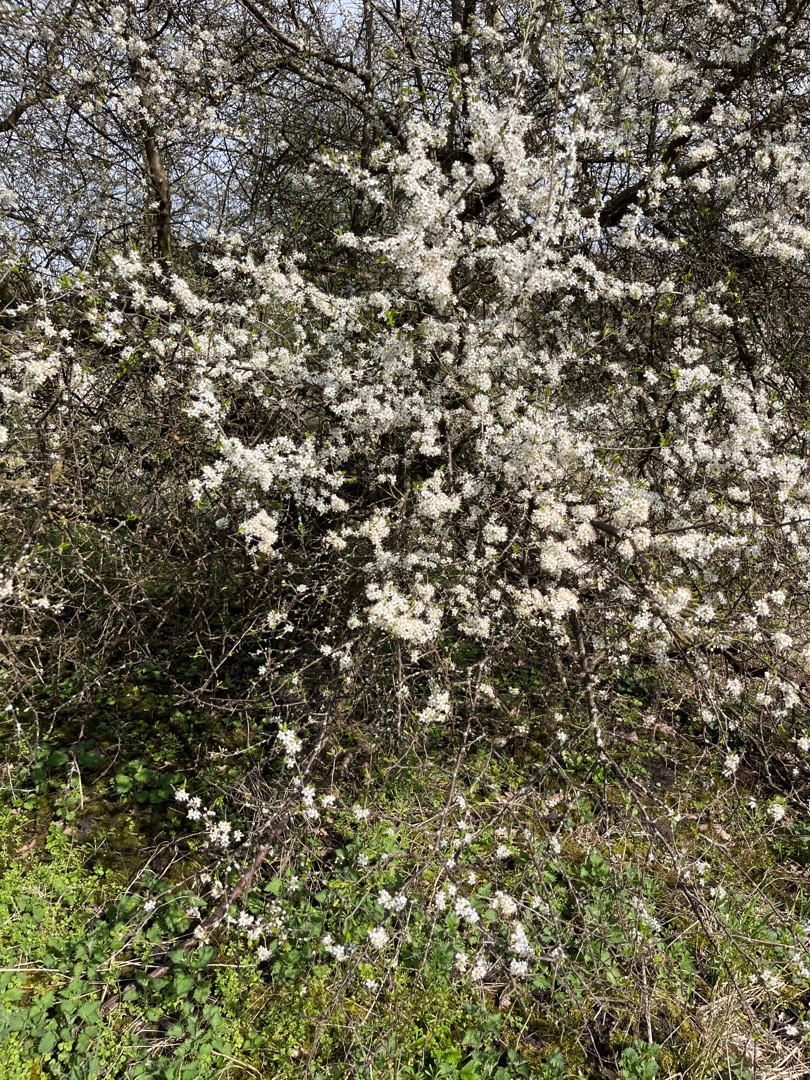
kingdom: Plantae
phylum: Tracheophyta
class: Magnoliopsida
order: Rosales
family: Rosaceae
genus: Prunus
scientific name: Prunus spinosa
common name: Slåen
